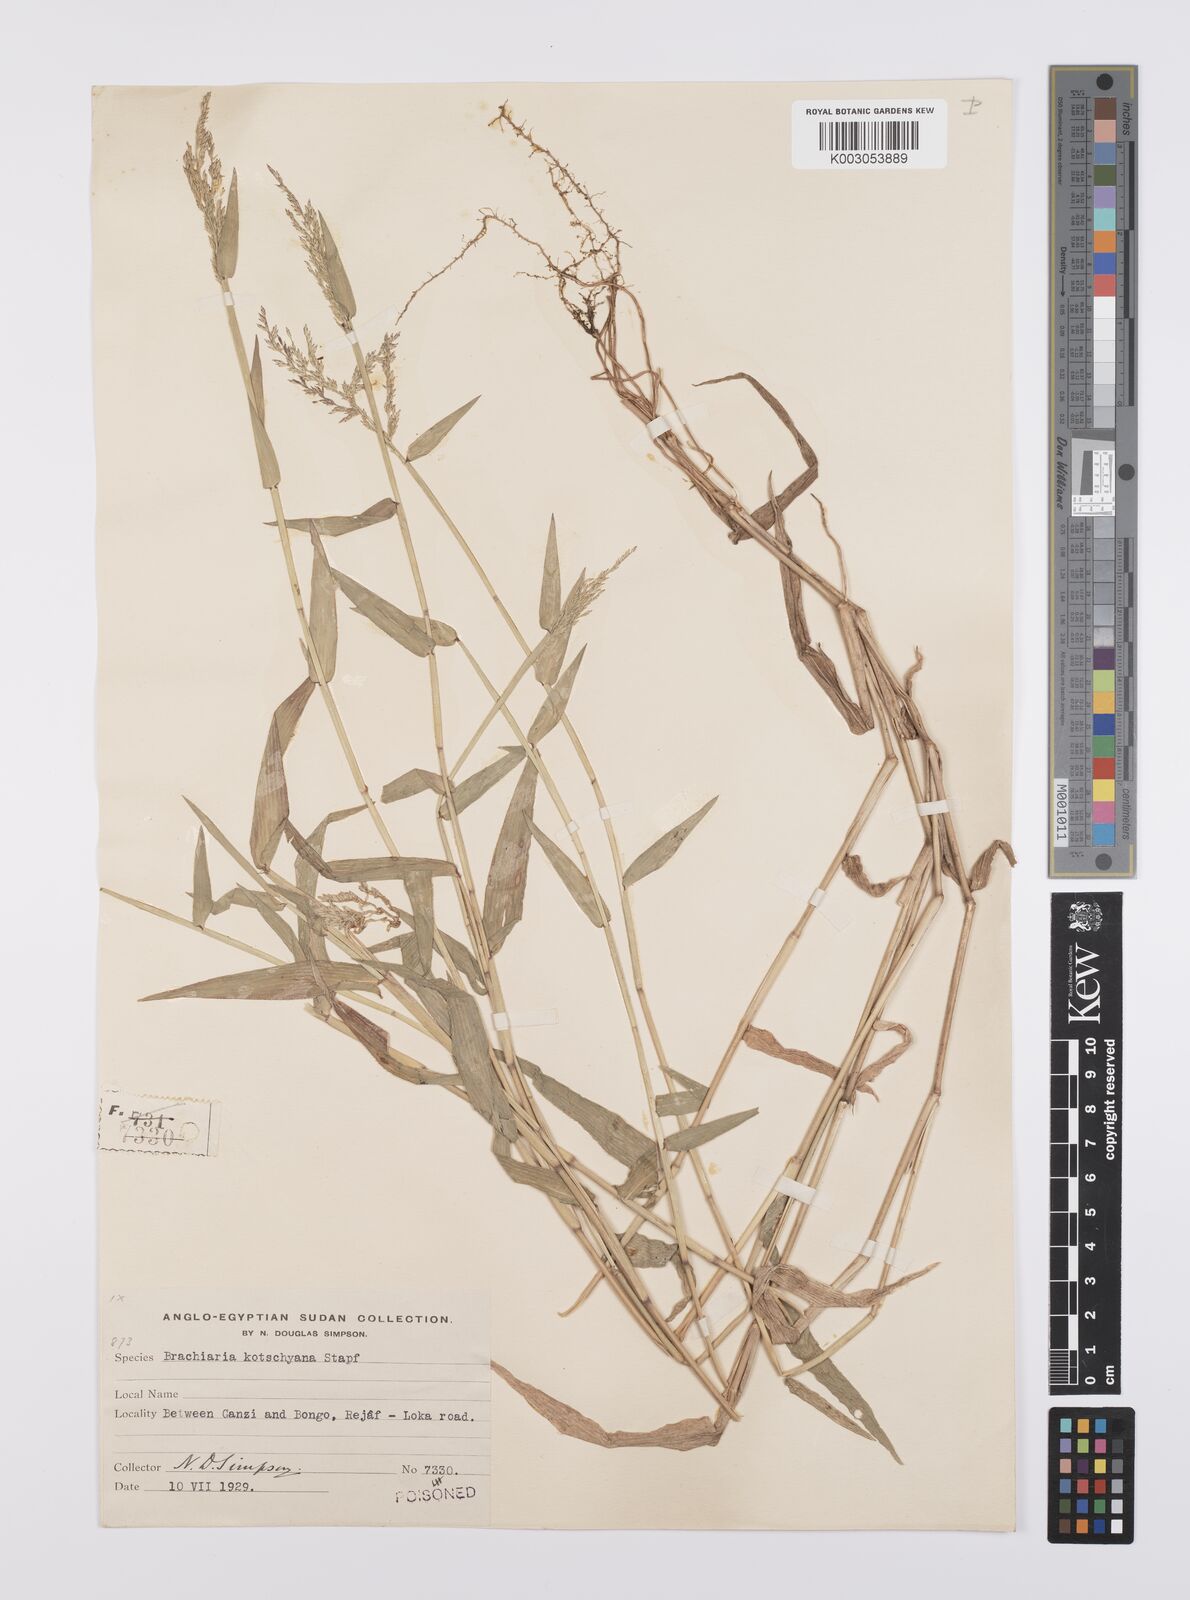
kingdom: Plantae
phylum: Tracheophyta
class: Liliopsida
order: Poales
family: Poaceae
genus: Urochloa
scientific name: Urochloa comata
